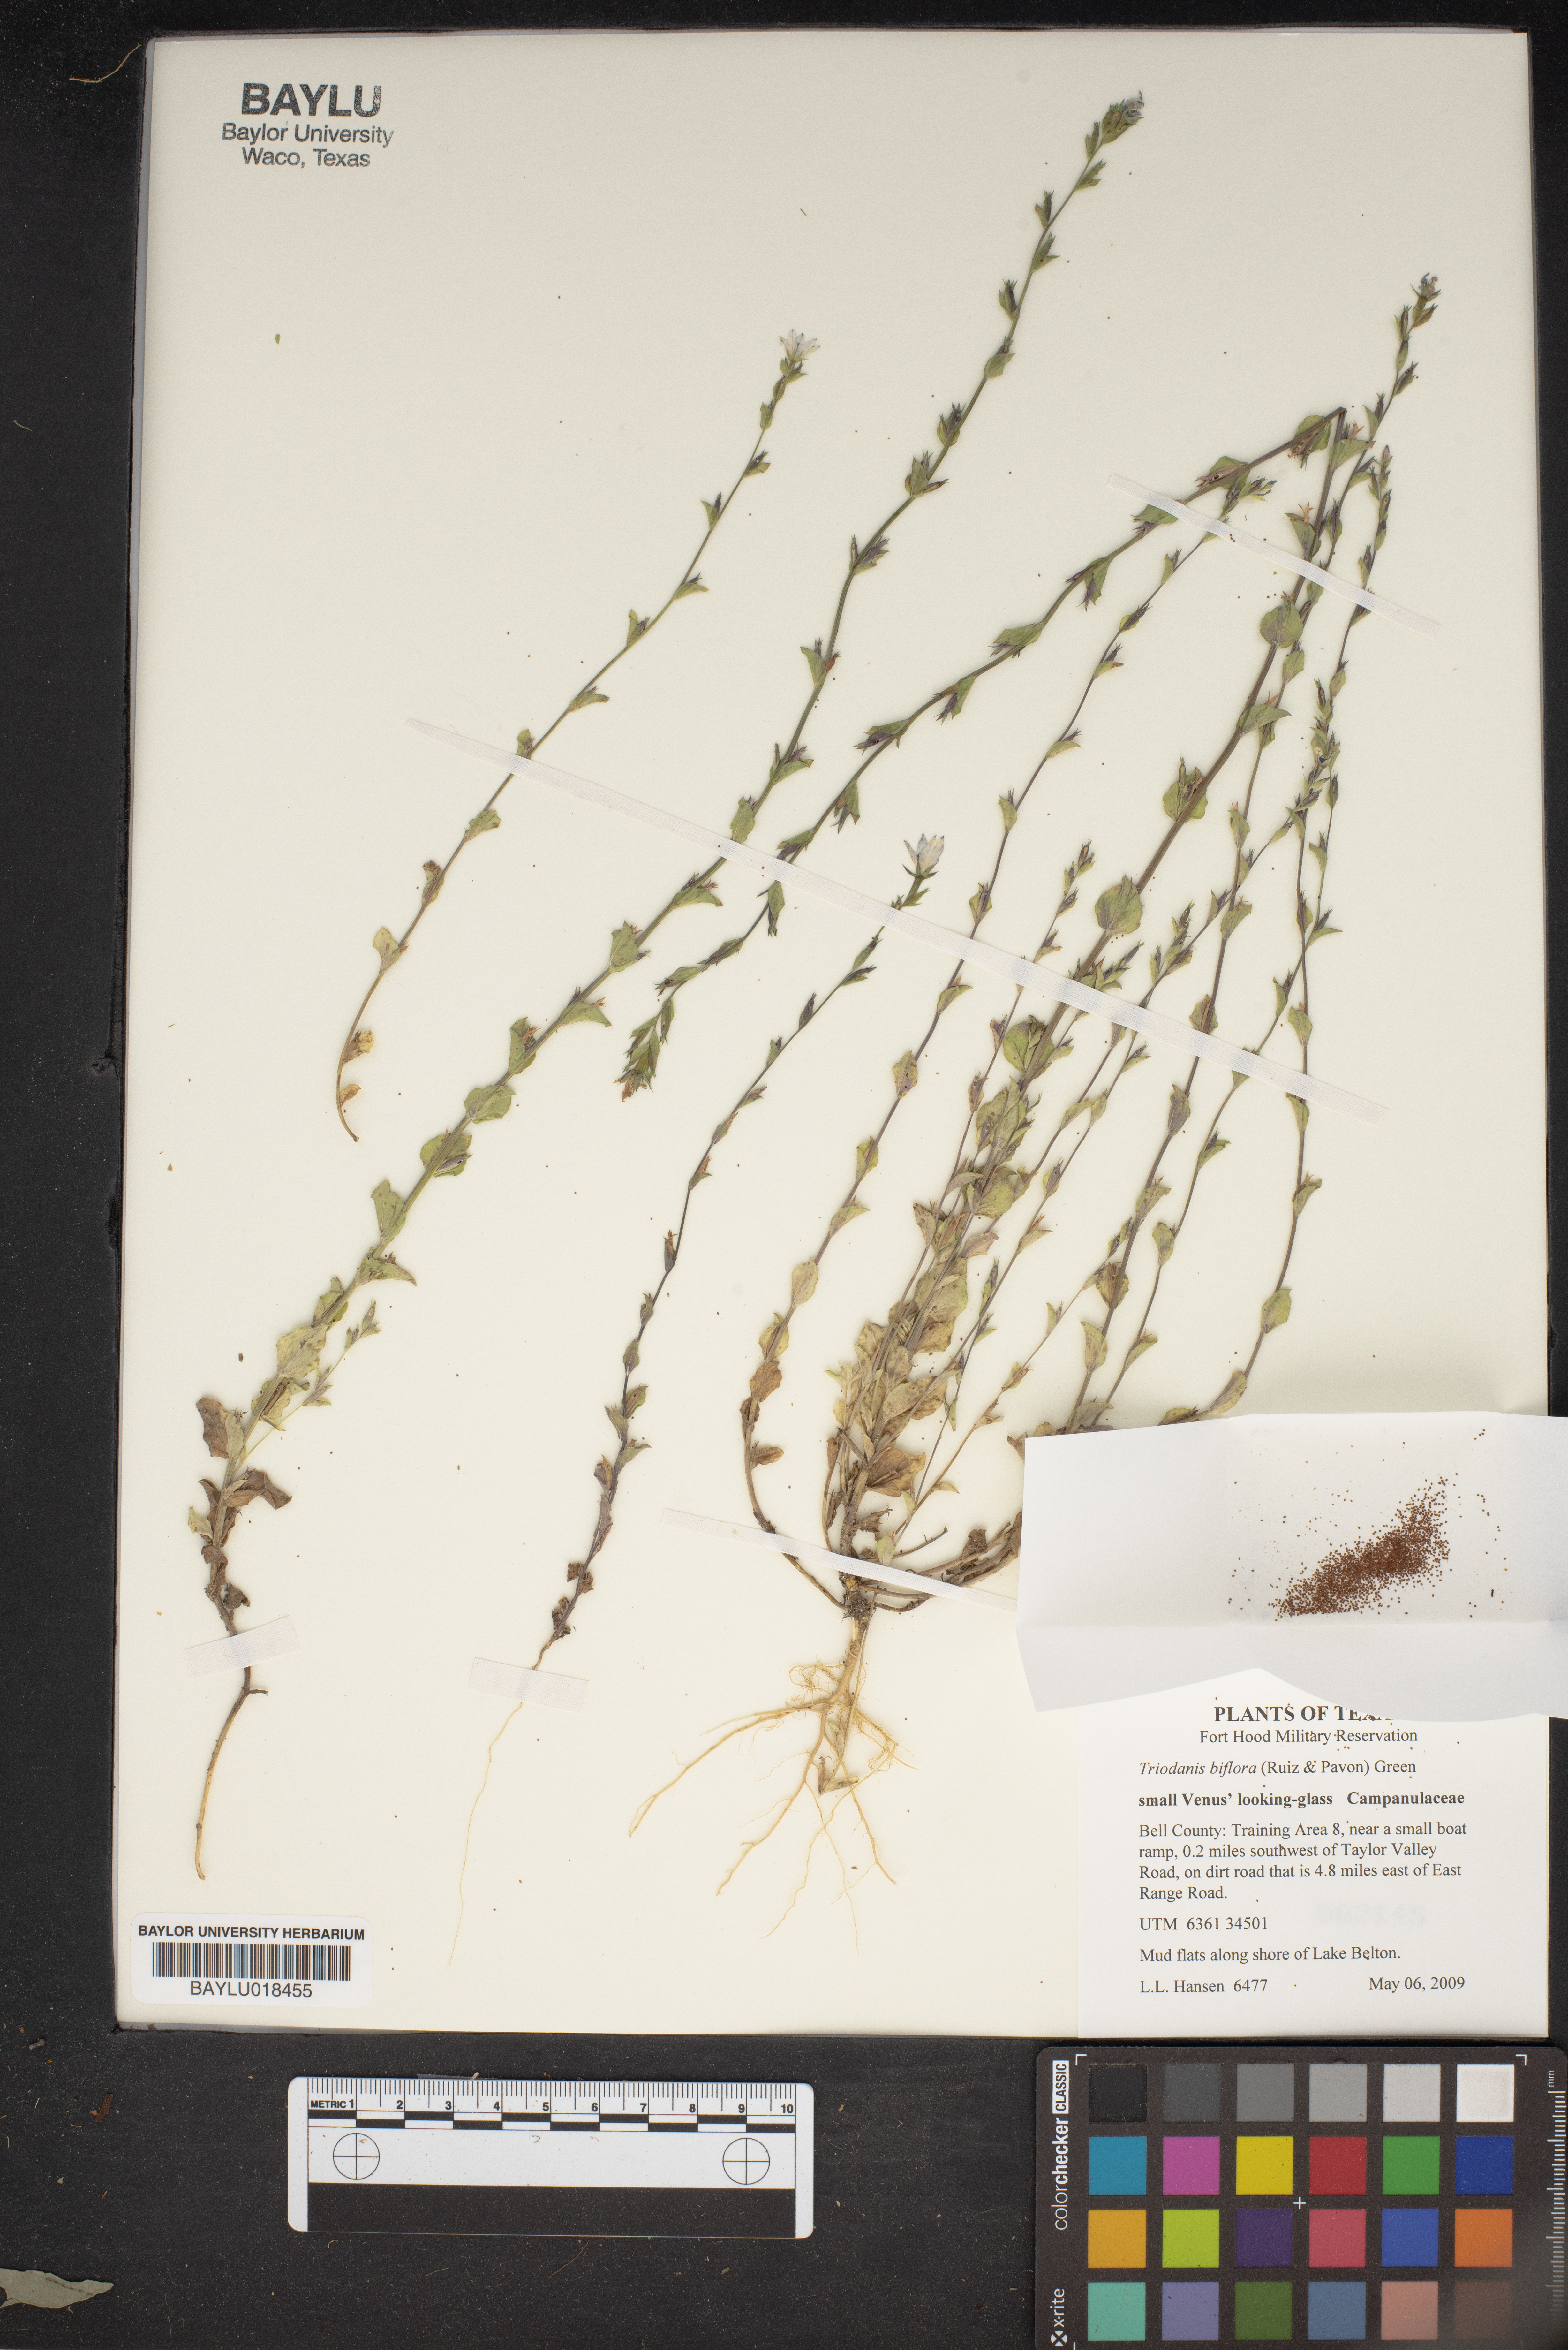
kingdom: Plantae
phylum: Tracheophyta
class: Magnoliopsida
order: Asterales
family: Campanulaceae
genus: Triodanis
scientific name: Triodanis perfoliata
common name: Clasping venus' looking-glass
